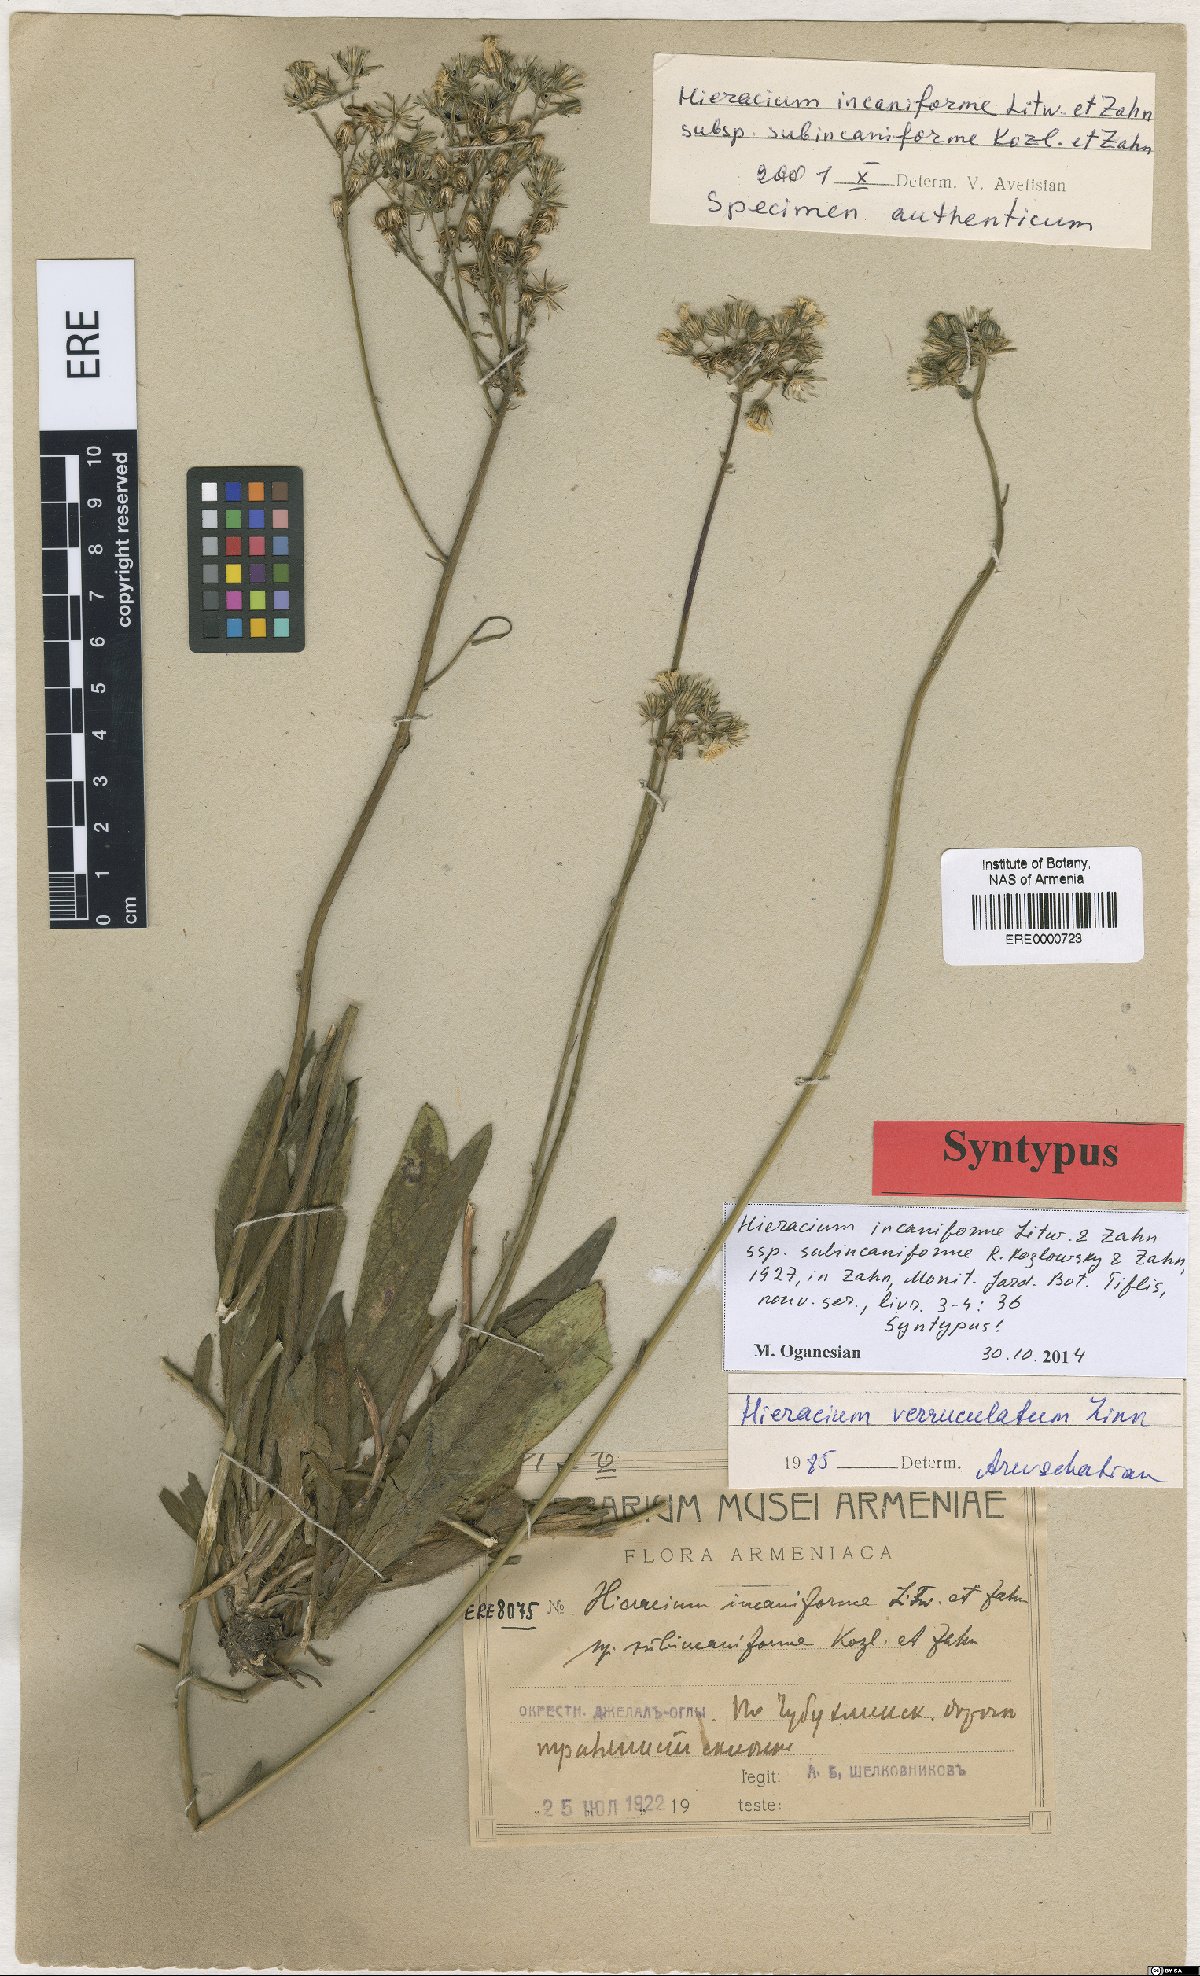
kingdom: Plantae
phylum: Tracheophyta
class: Magnoliopsida
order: Asterales
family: Asteraceae
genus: Pilosella
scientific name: Pilosella sintenisii
